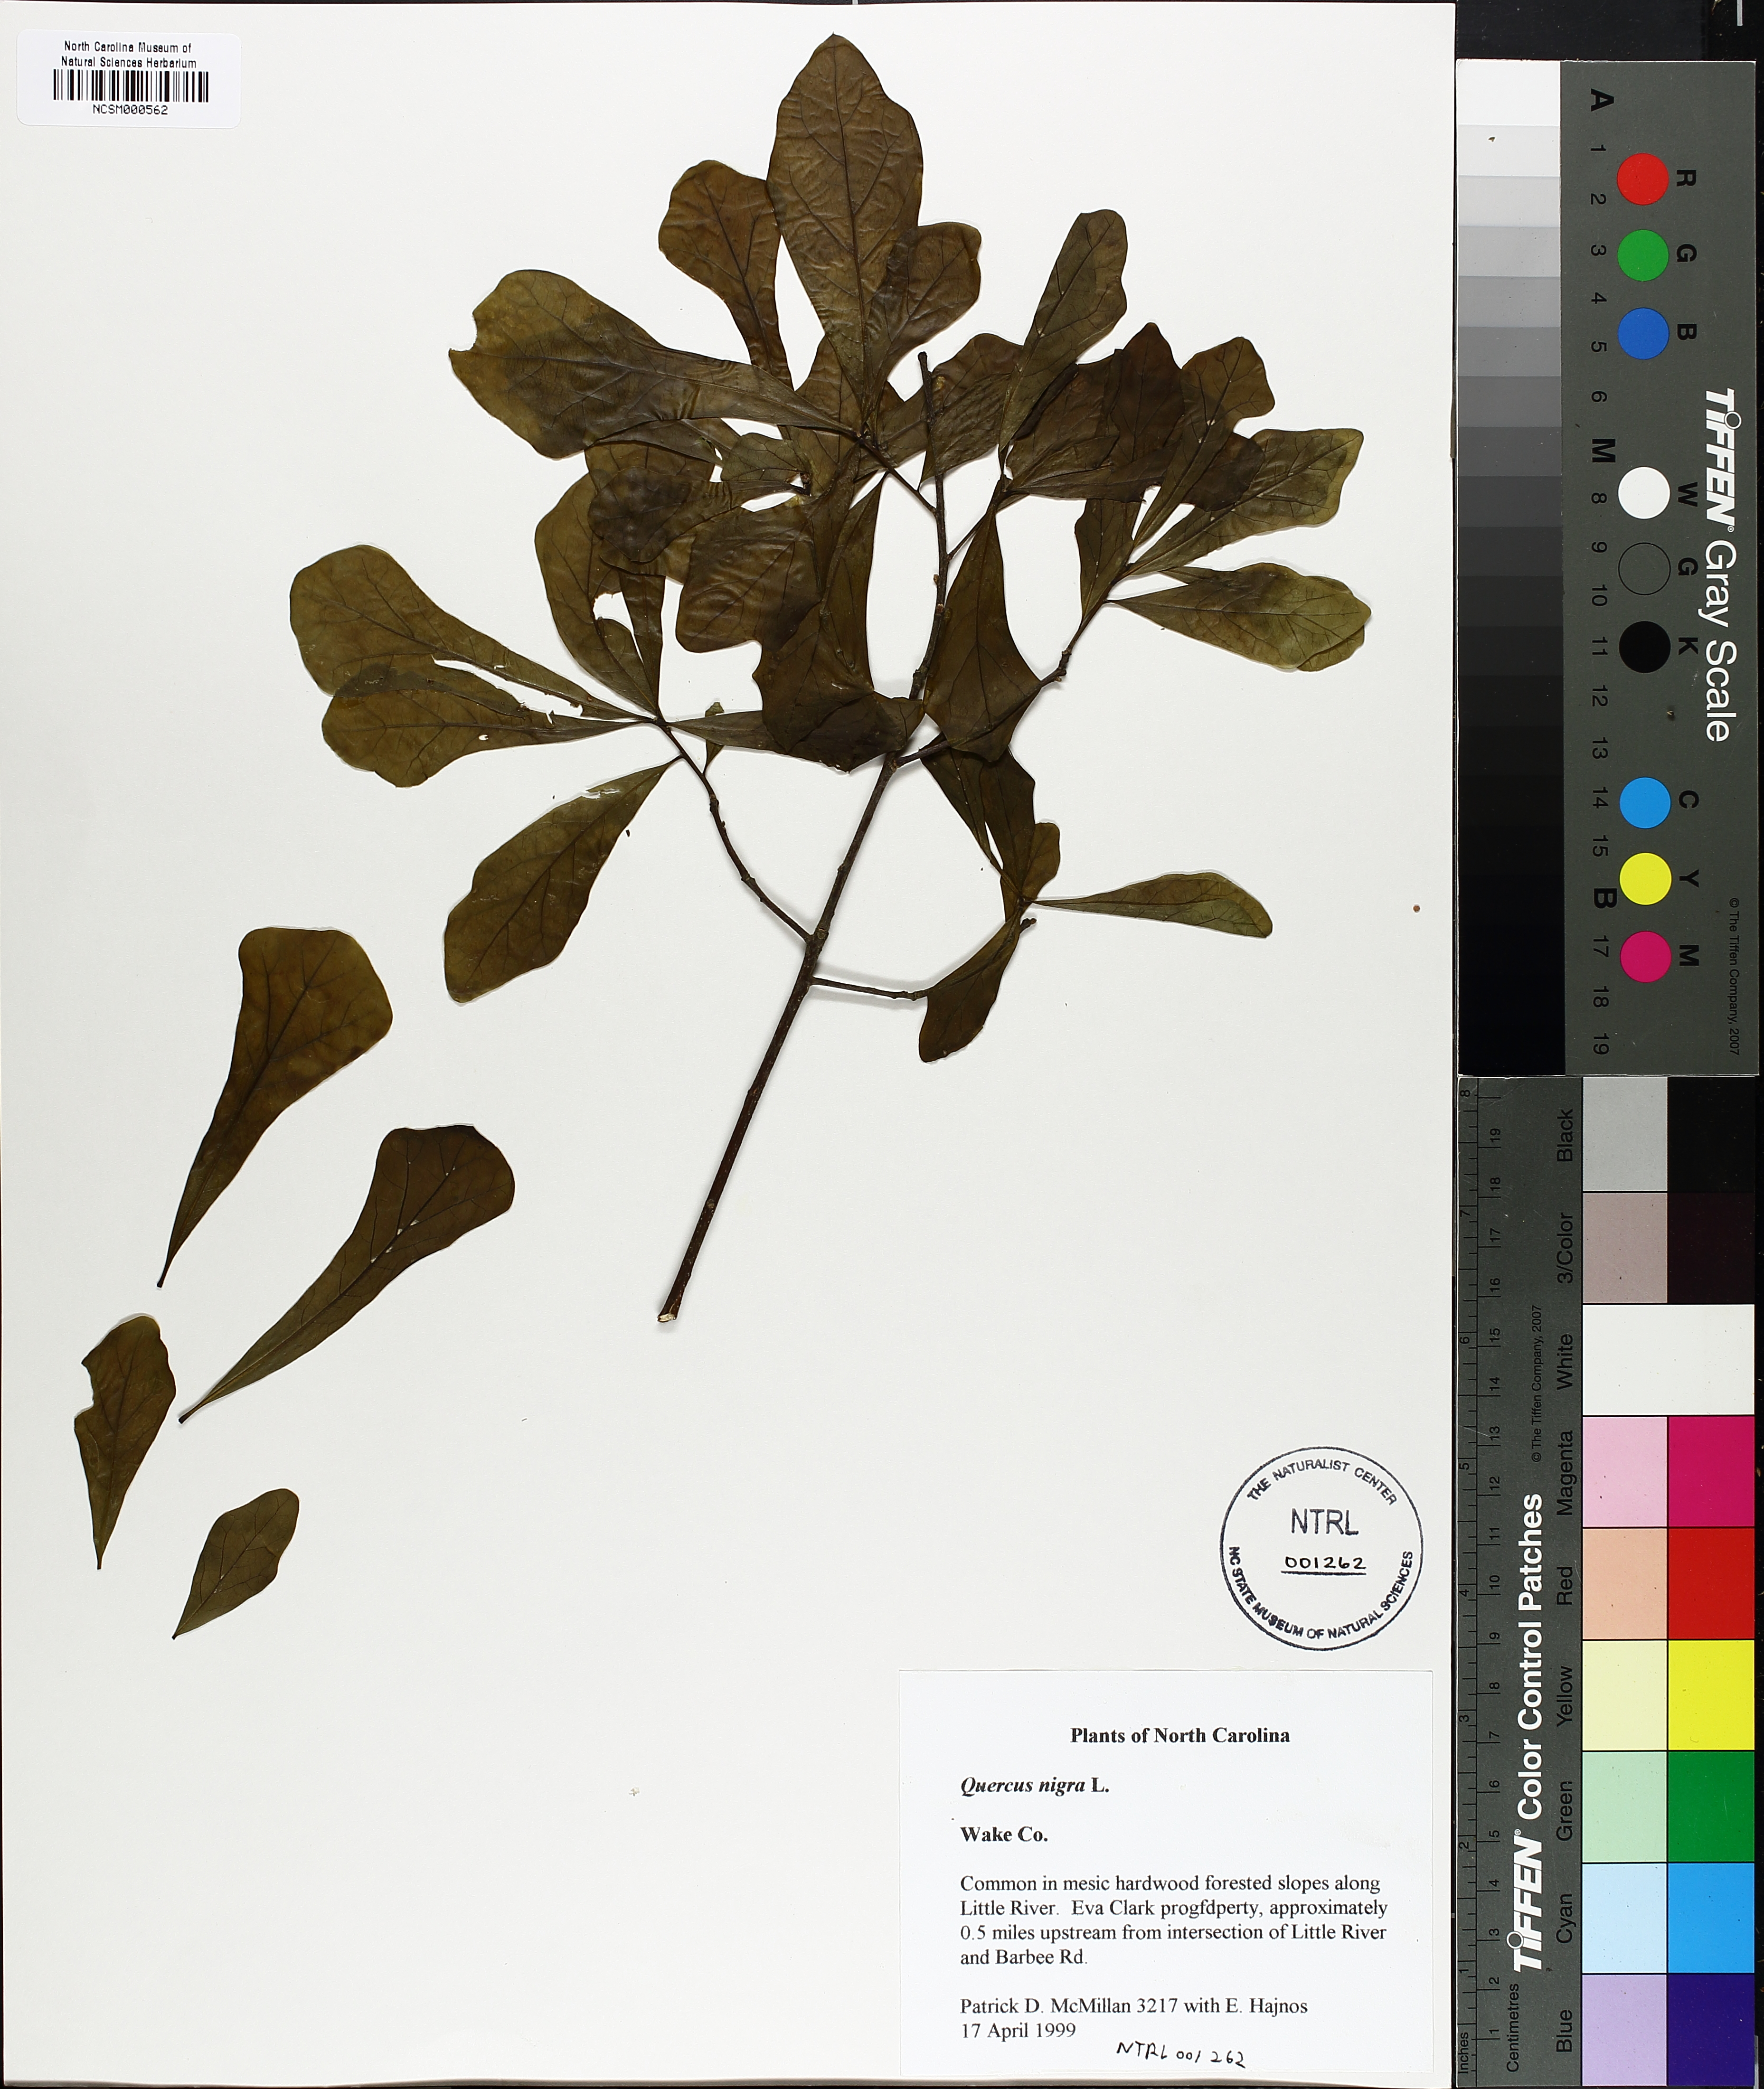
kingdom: Plantae
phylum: Tracheophyta
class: Magnoliopsida
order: Fagales
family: Fagaceae
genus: Quercus
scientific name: Quercus nigra
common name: Water oak
